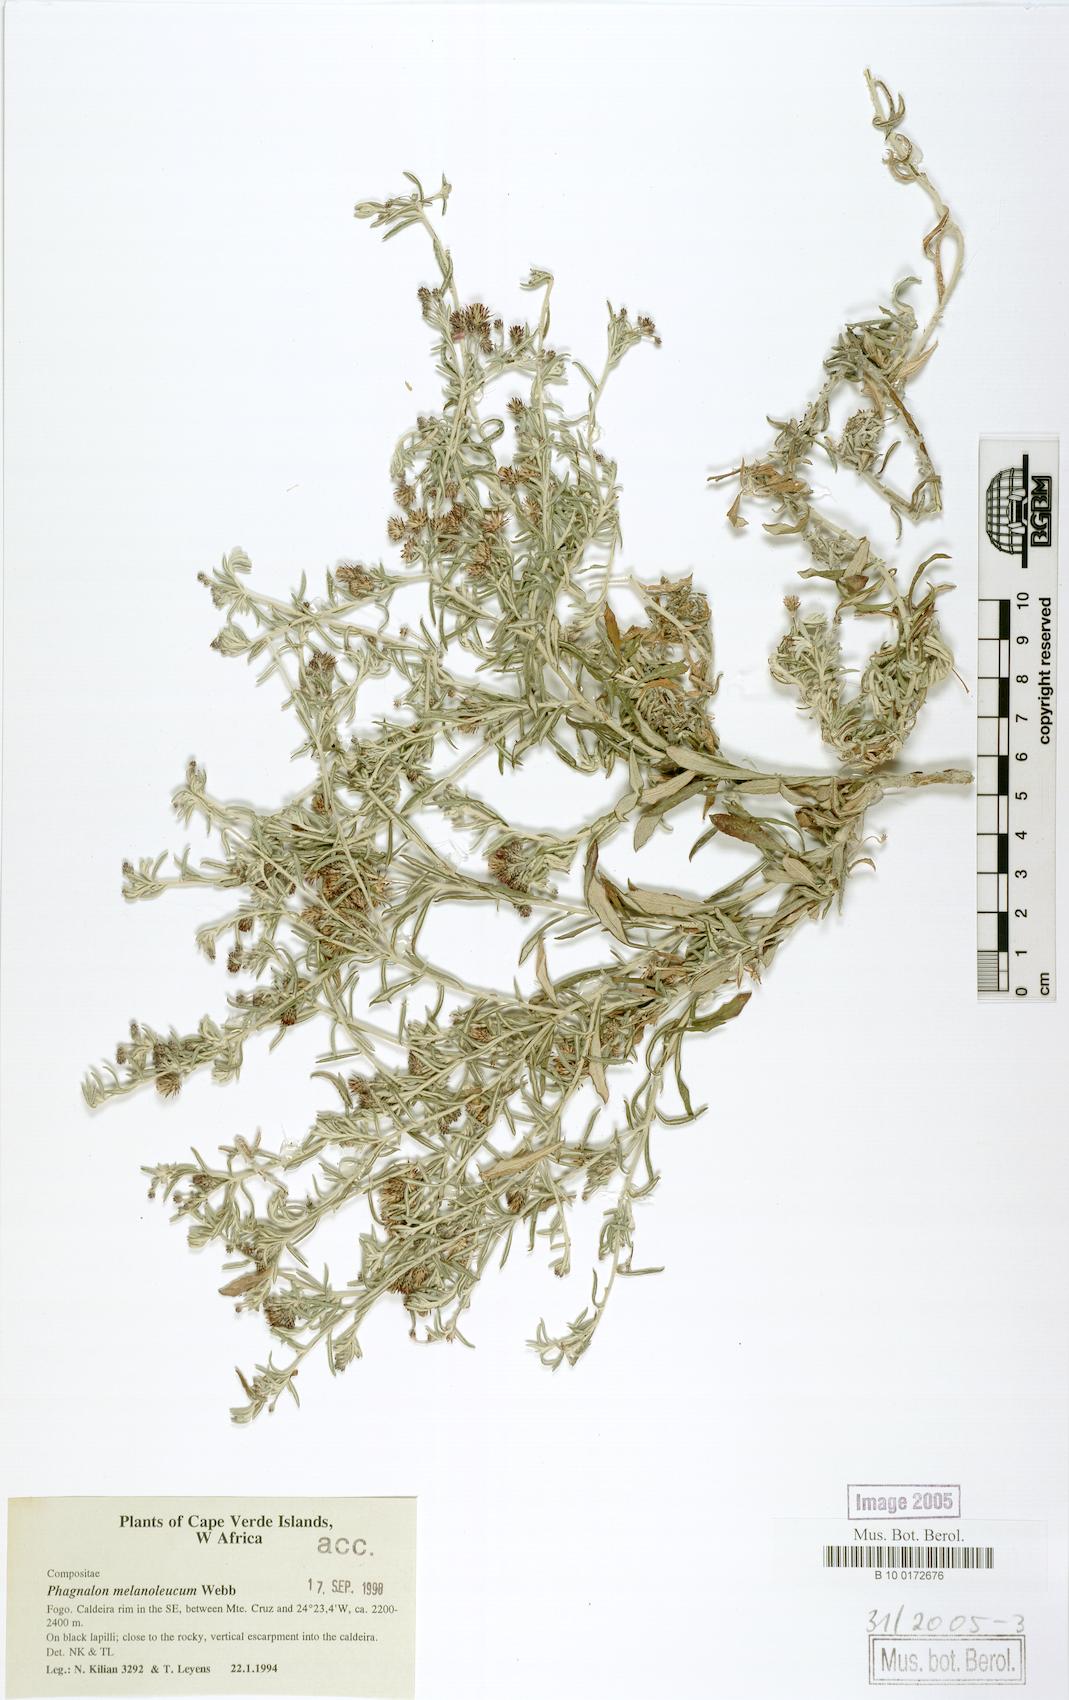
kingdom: Plantae
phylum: Tracheophyta
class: Magnoliopsida
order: Asterales
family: Asteraceae
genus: Phagnalon
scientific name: Phagnalon melanoleucum
